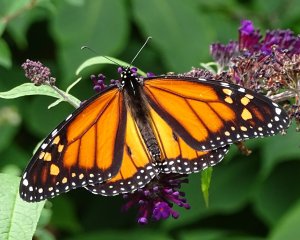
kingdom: Animalia
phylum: Arthropoda
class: Insecta
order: Lepidoptera
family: Nymphalidae
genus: Danaus
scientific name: Danaus plexippus
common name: Monarch
